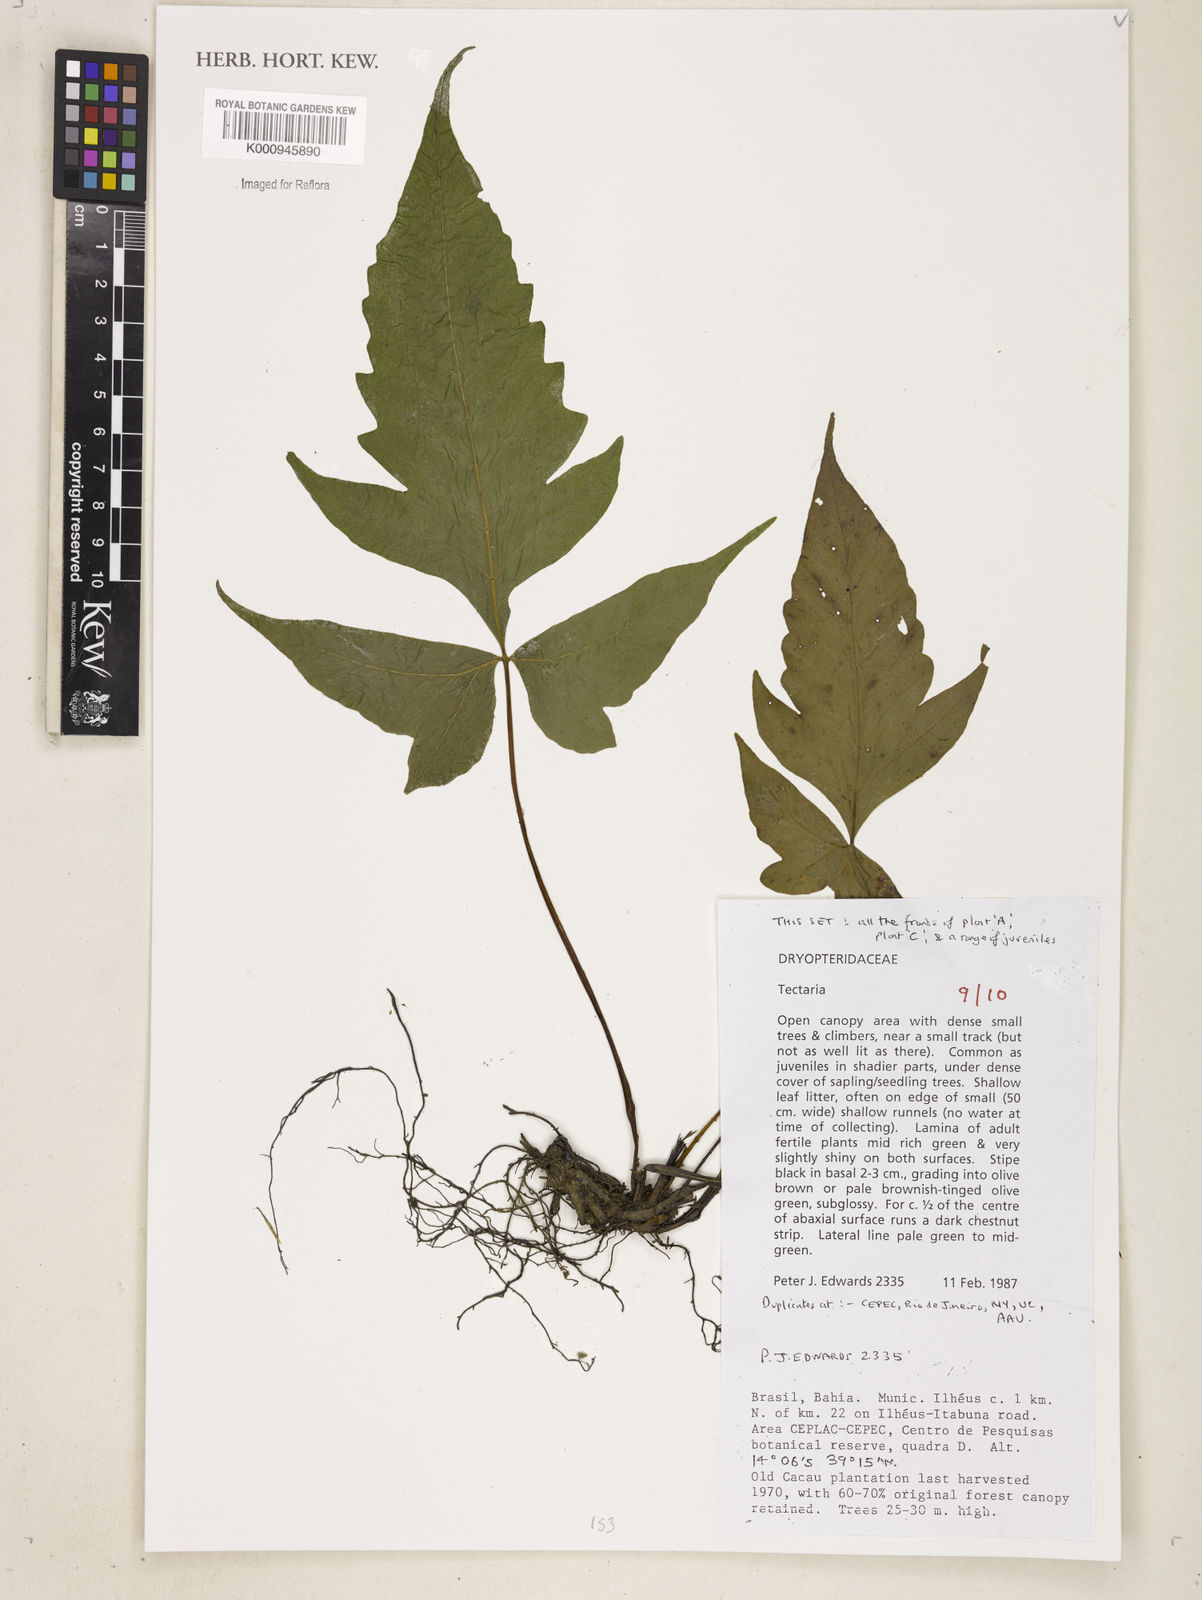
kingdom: Plantae
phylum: Tracheophyta
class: Polypodiopsida
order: Polypodiales
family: Tectariaceae
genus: Tectaria
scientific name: Tectaria
